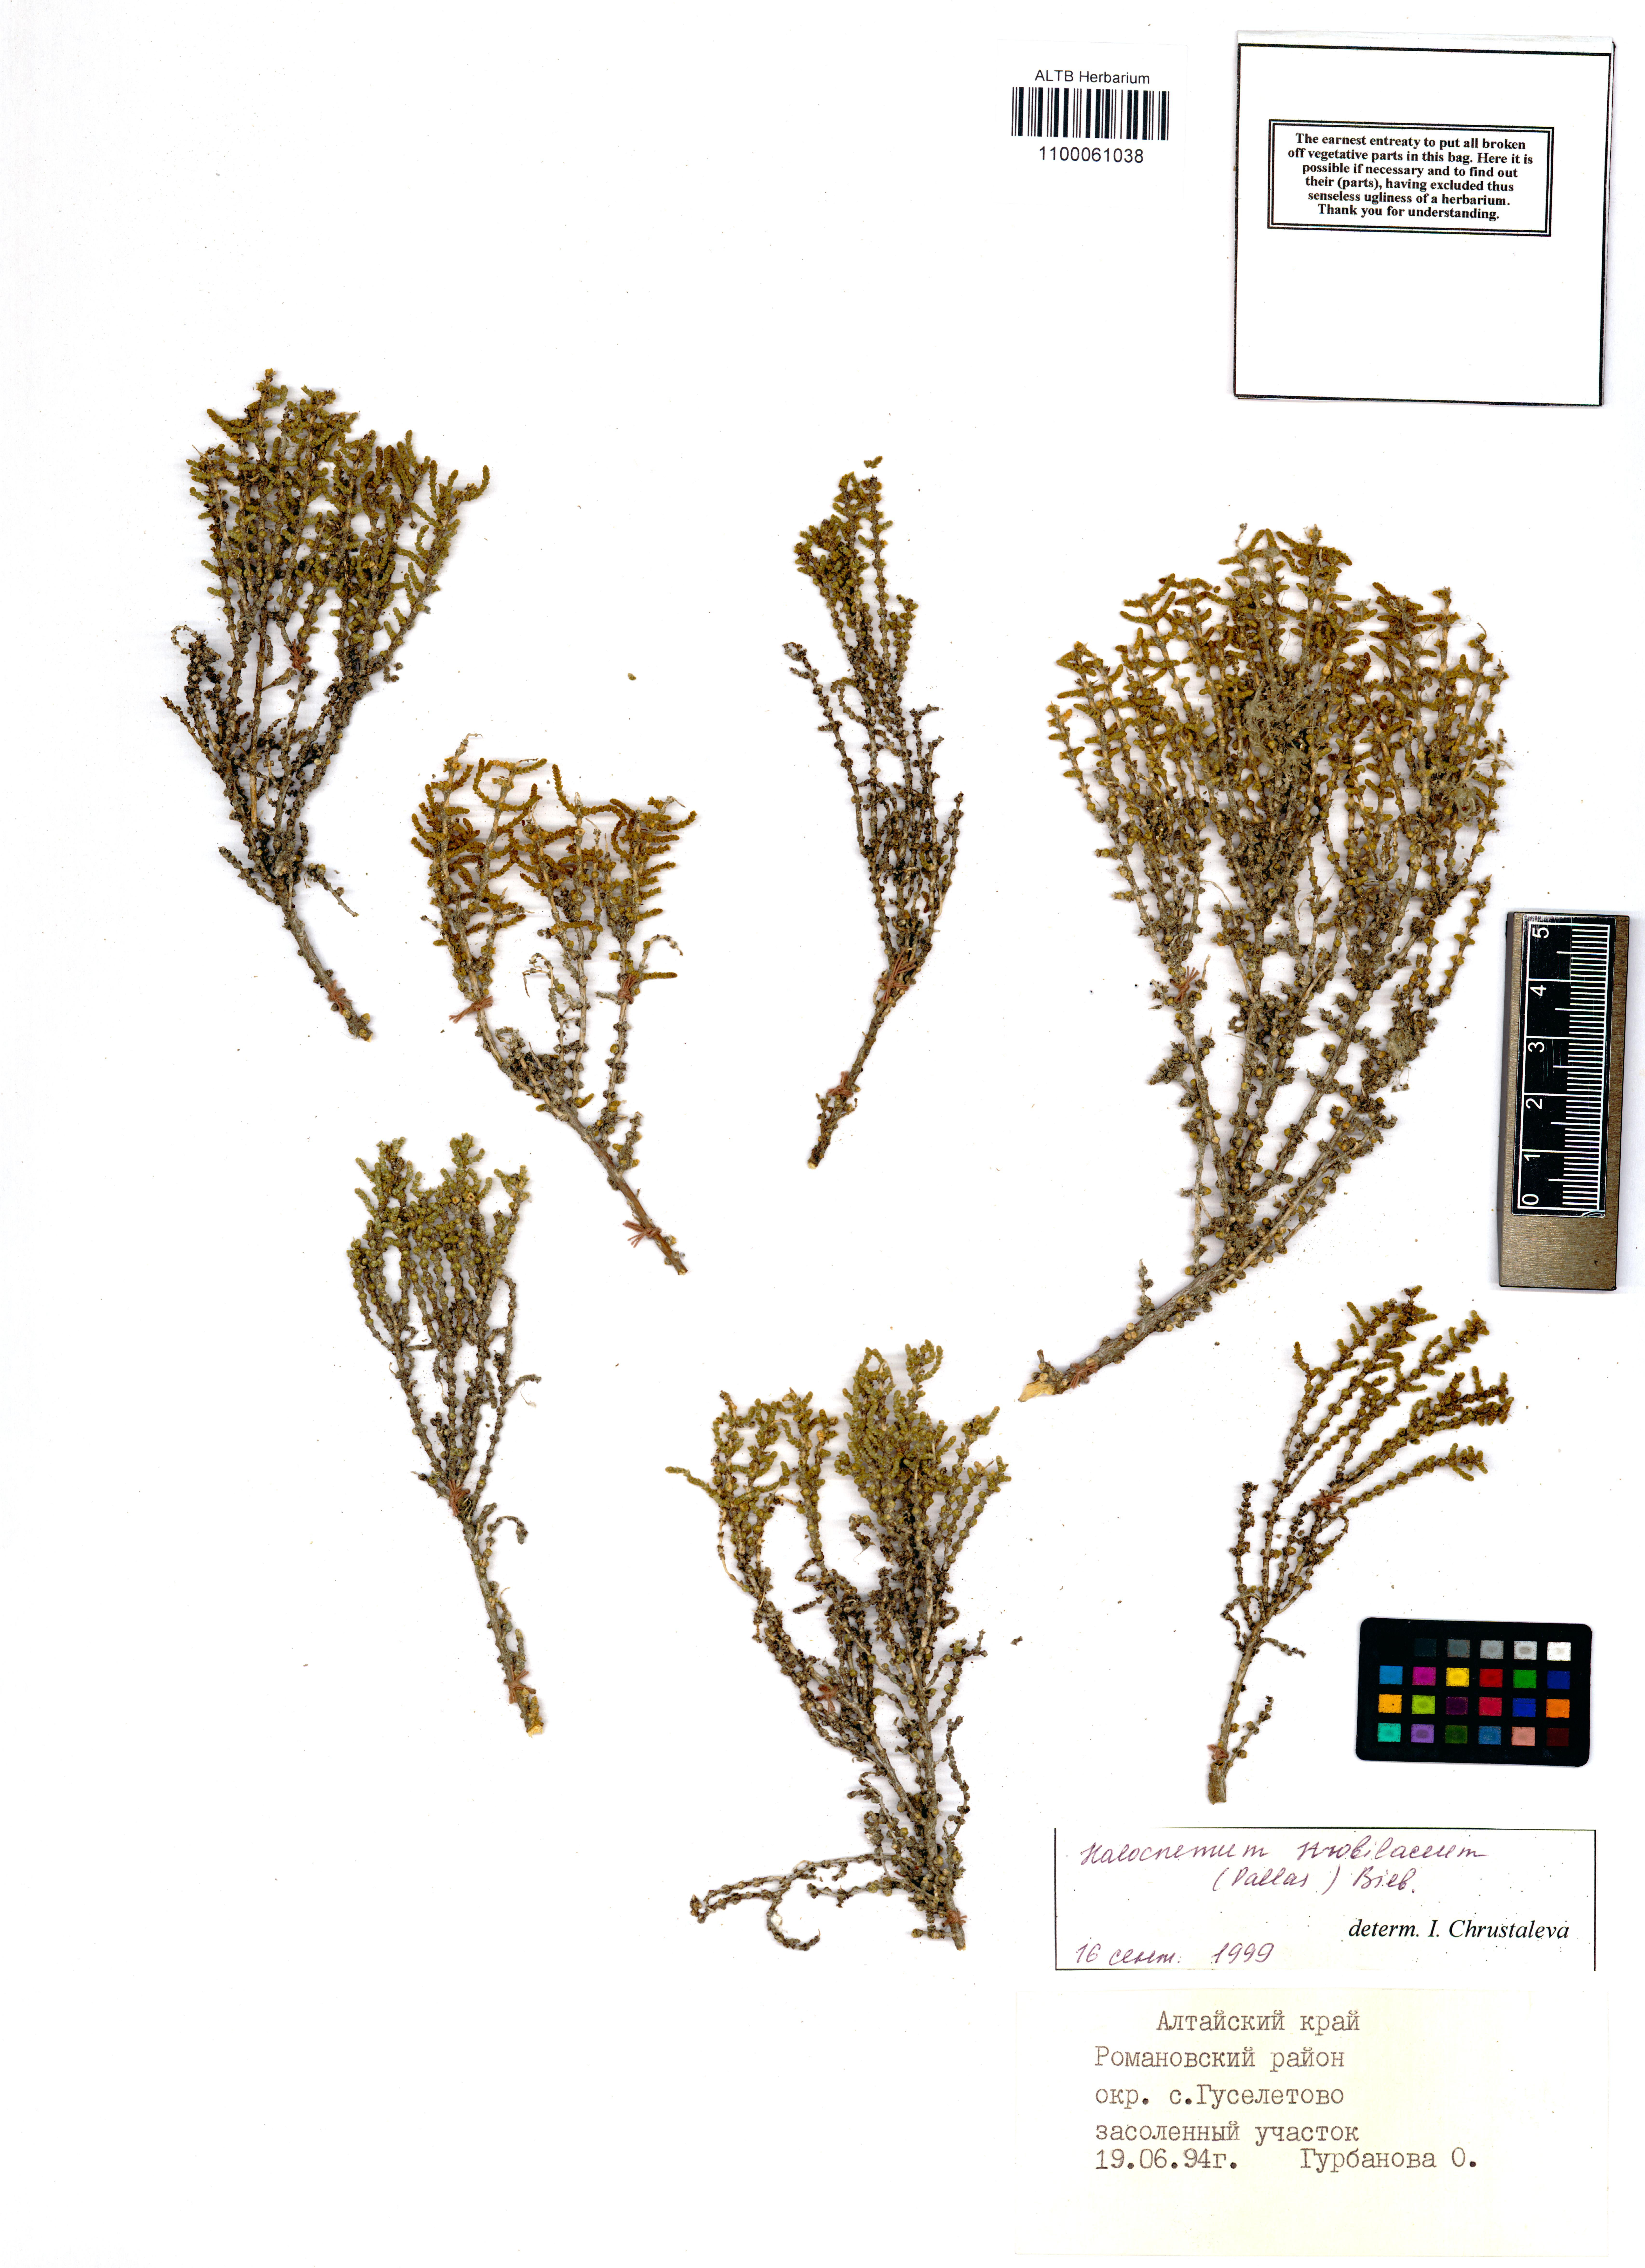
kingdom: Plantae
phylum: Tracheophyta
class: Magnoliopsida
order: Caryophyllales
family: Amaranthaceae
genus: Halocnemum
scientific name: Halocnemum strobilaceum
